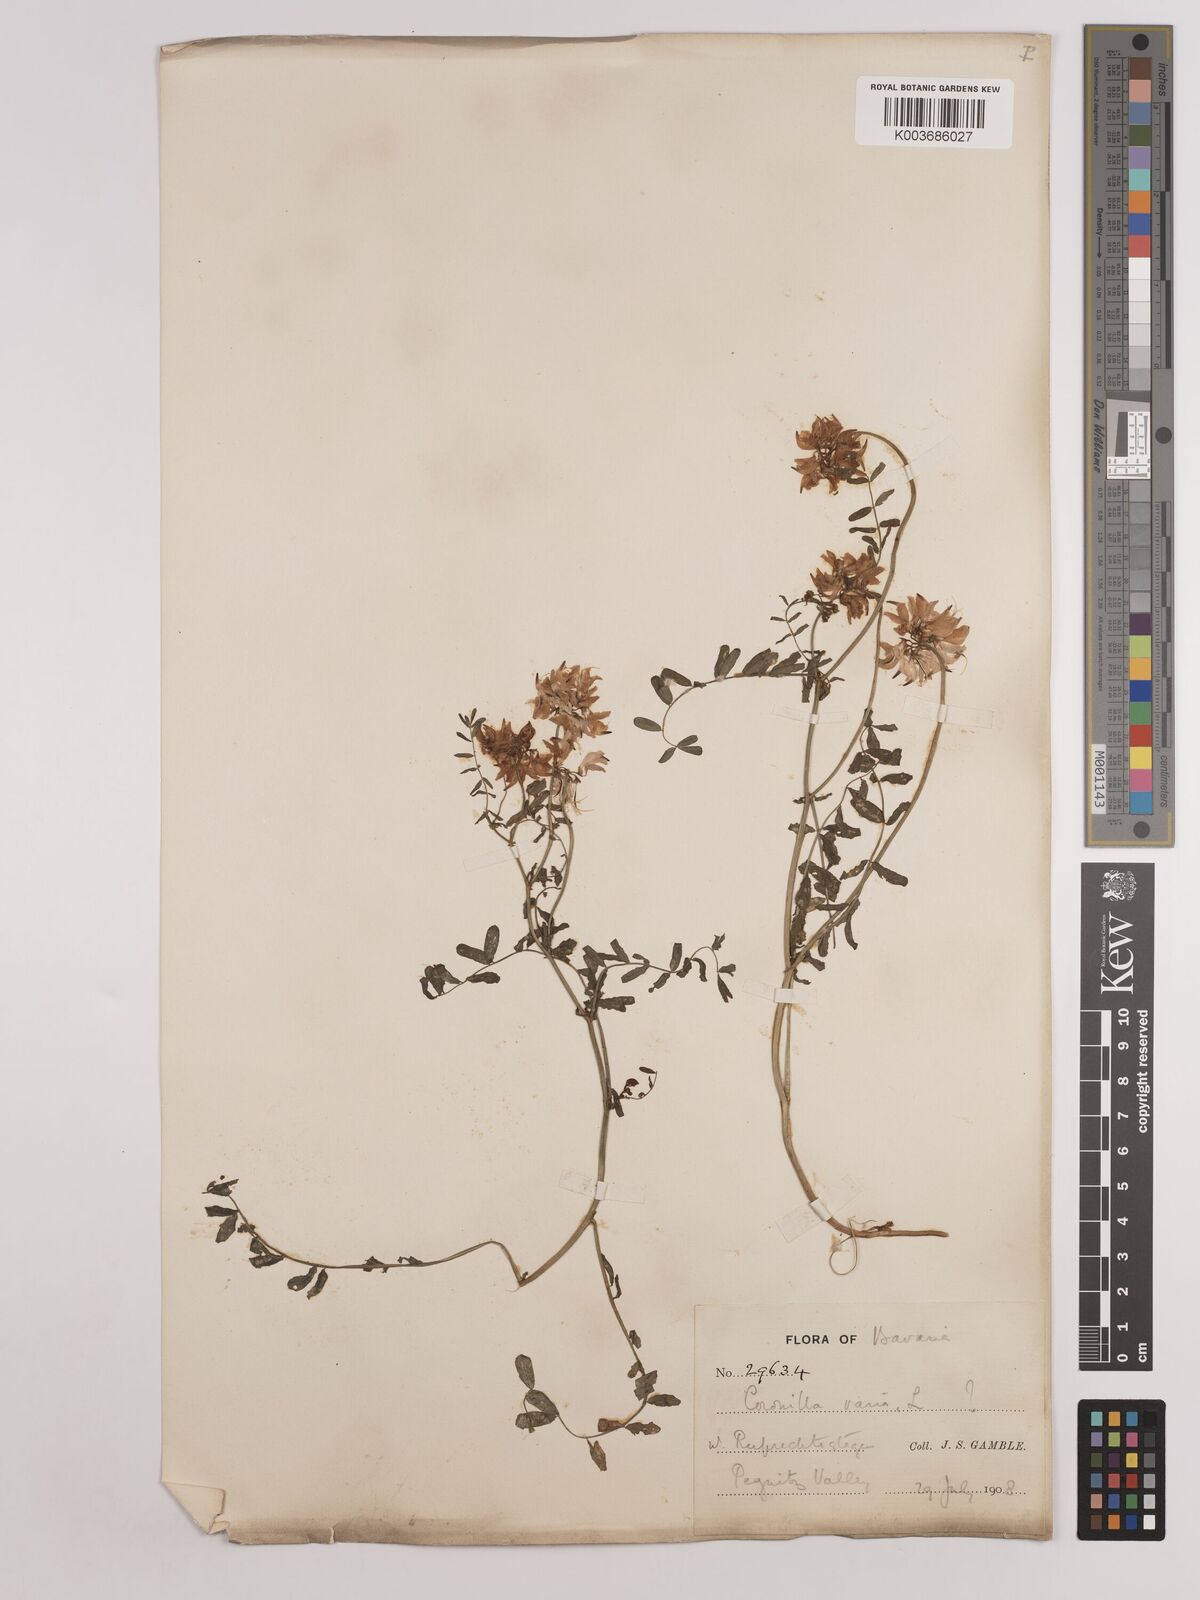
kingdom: Plantae
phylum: Tracheophyta
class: Magnoliopsida
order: Fabales
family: Fabaceae
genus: Coronilla
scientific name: Coronilla varia
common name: Crownvetch
